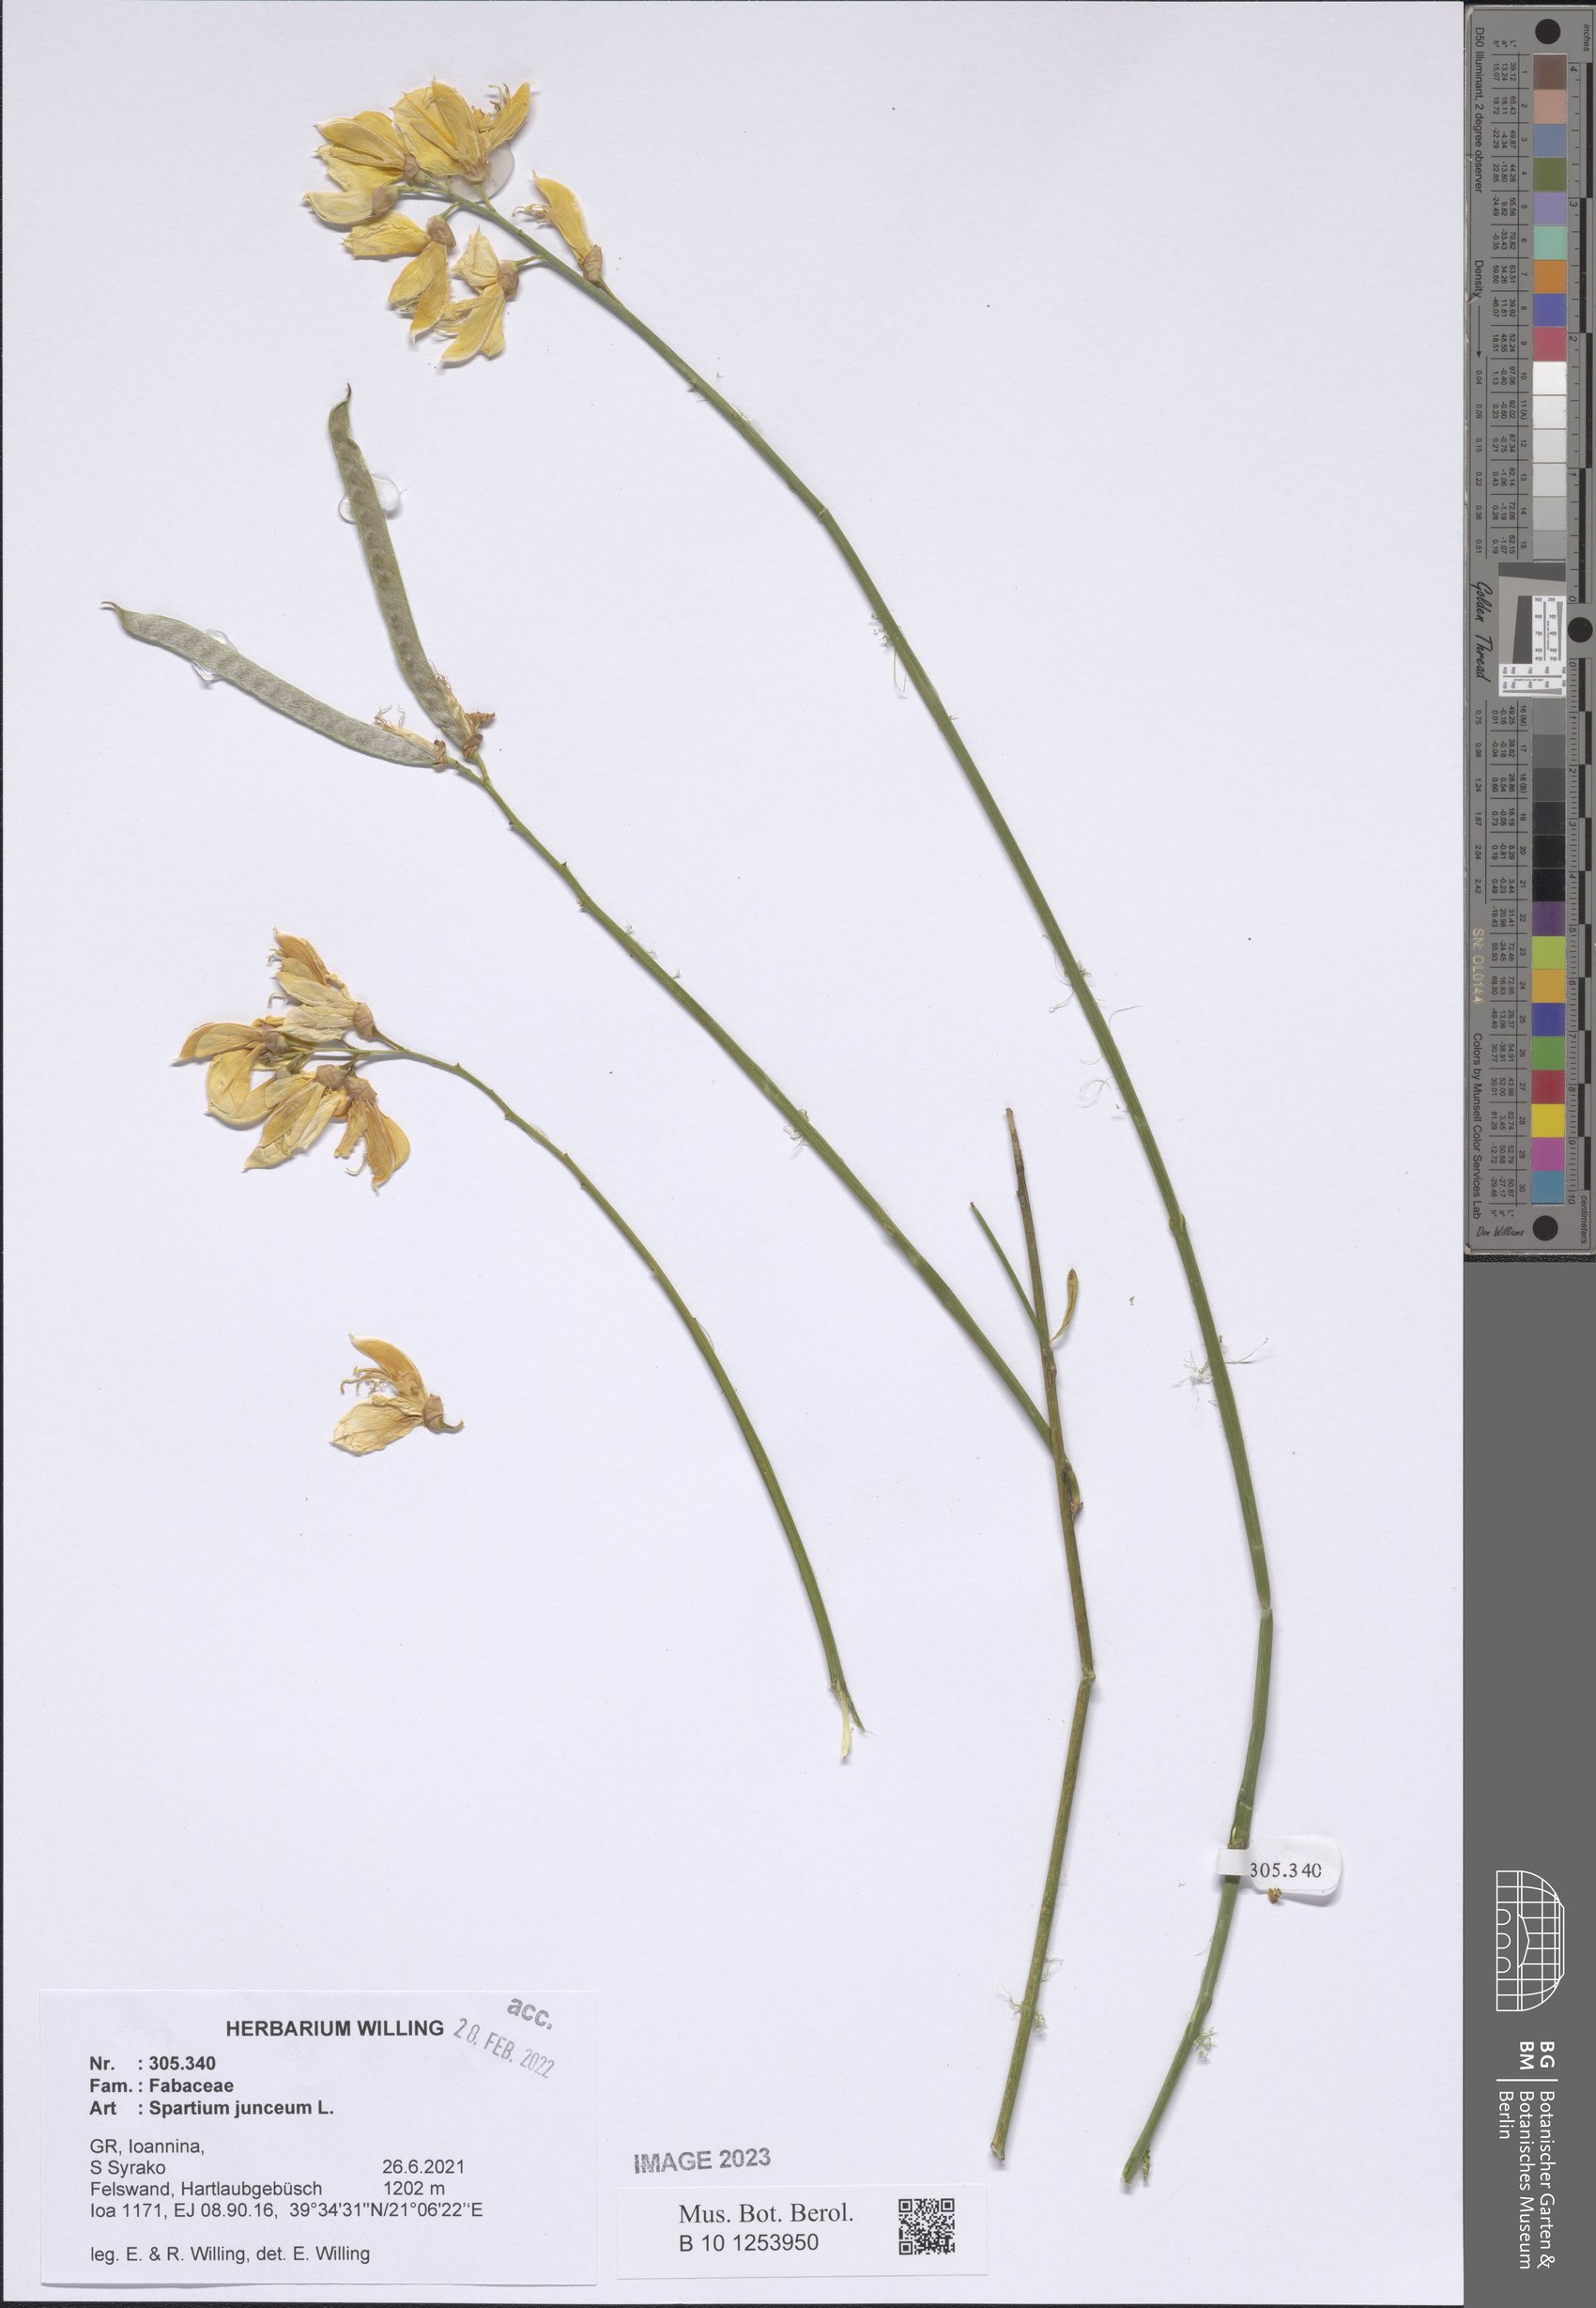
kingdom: Plantae
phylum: Tracheophyta
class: Magnoliopsida
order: Fabales
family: Fabaceae
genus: Spartium
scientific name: Spartium junceum
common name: Spanish broom
